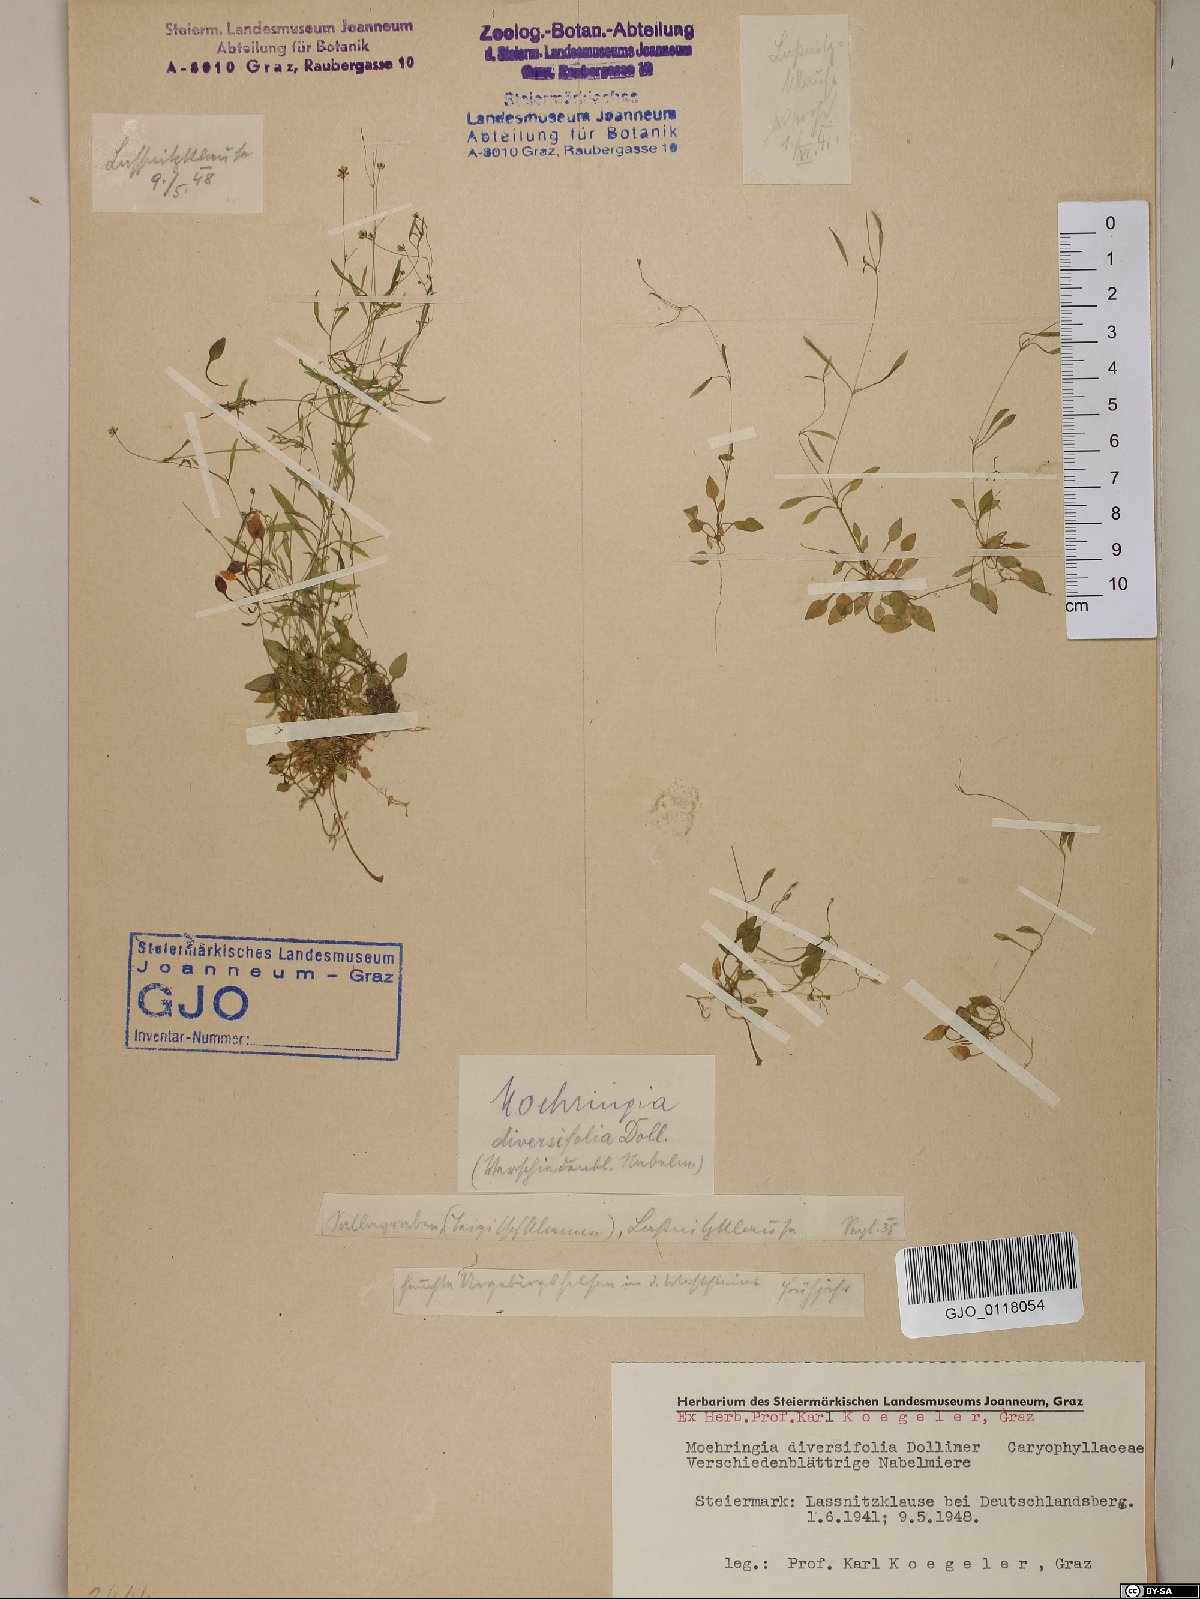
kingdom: Plantae
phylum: Tracheophyta
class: Magnoliopsida
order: Caryophyllales
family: Caryophyllaceae
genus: Moehringia
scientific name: Moehringia diversifolia
